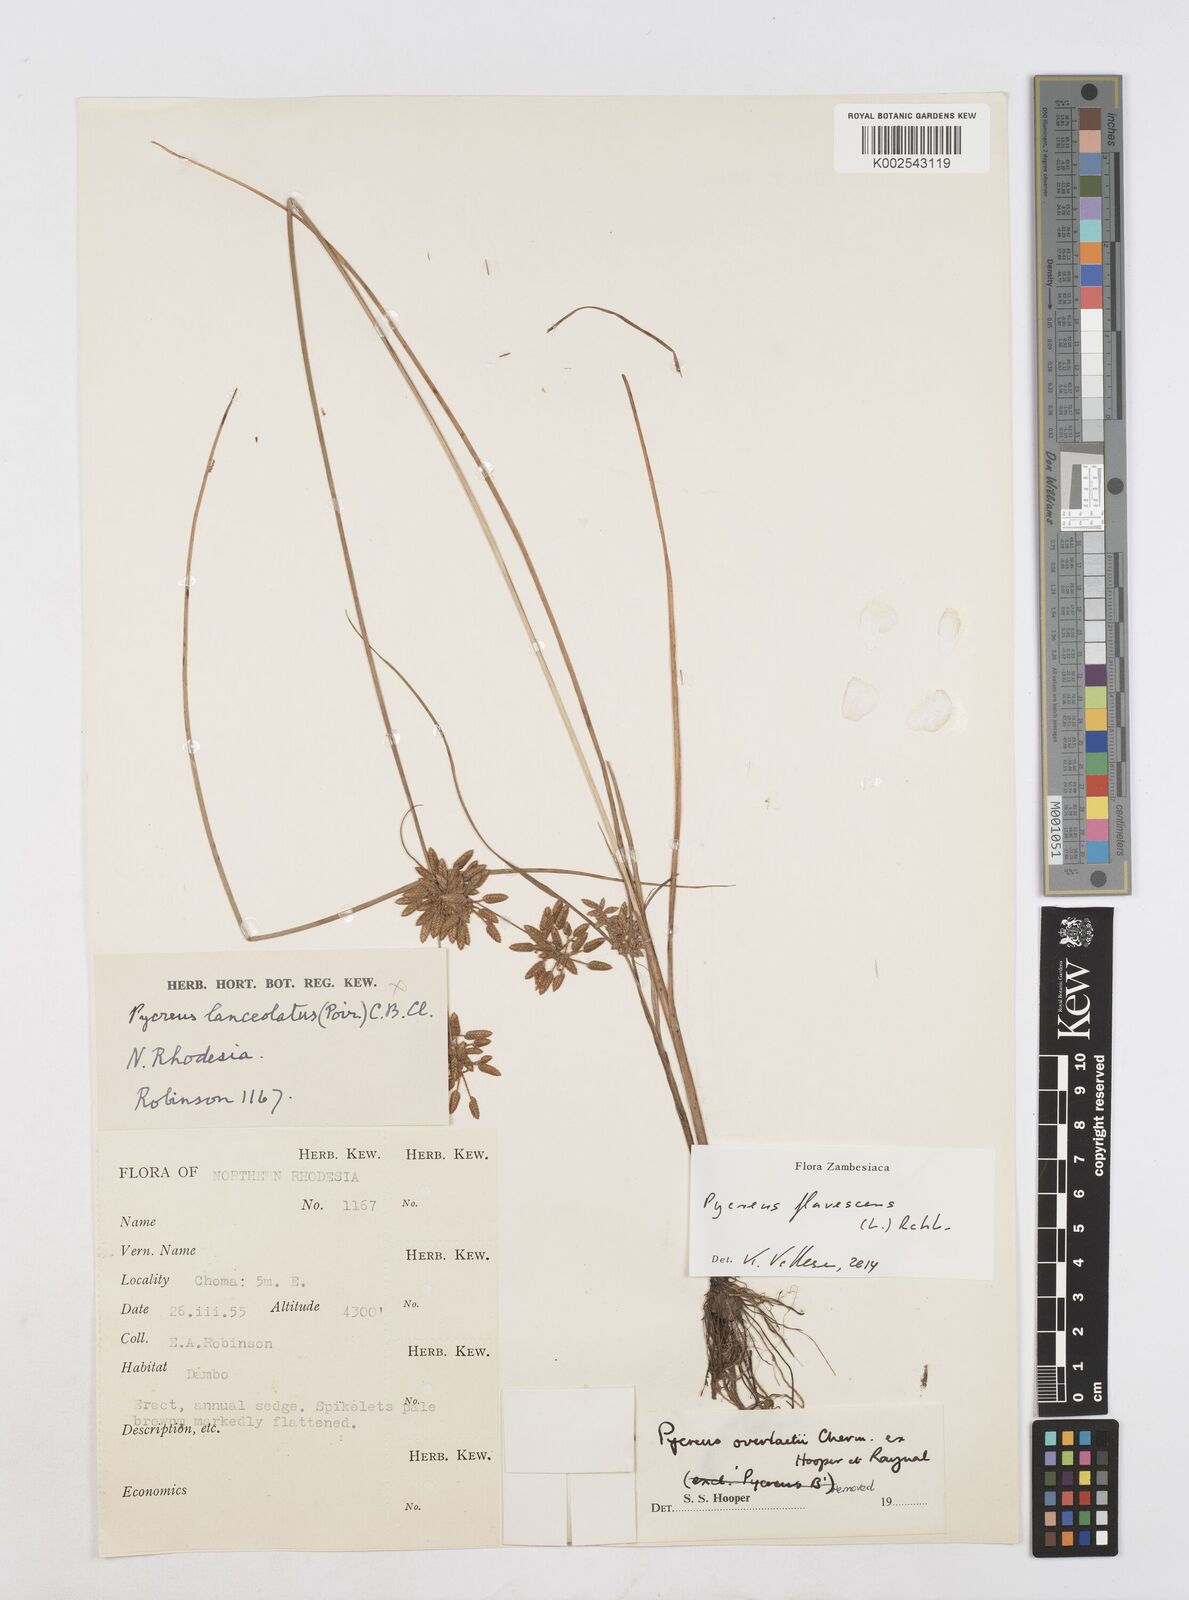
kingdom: Plantae
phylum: Tracheophyta
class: Liliopsida
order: Poales
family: Cyperaceae
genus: Cyperus
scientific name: Cyperus flavescens
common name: Yellow galingale
